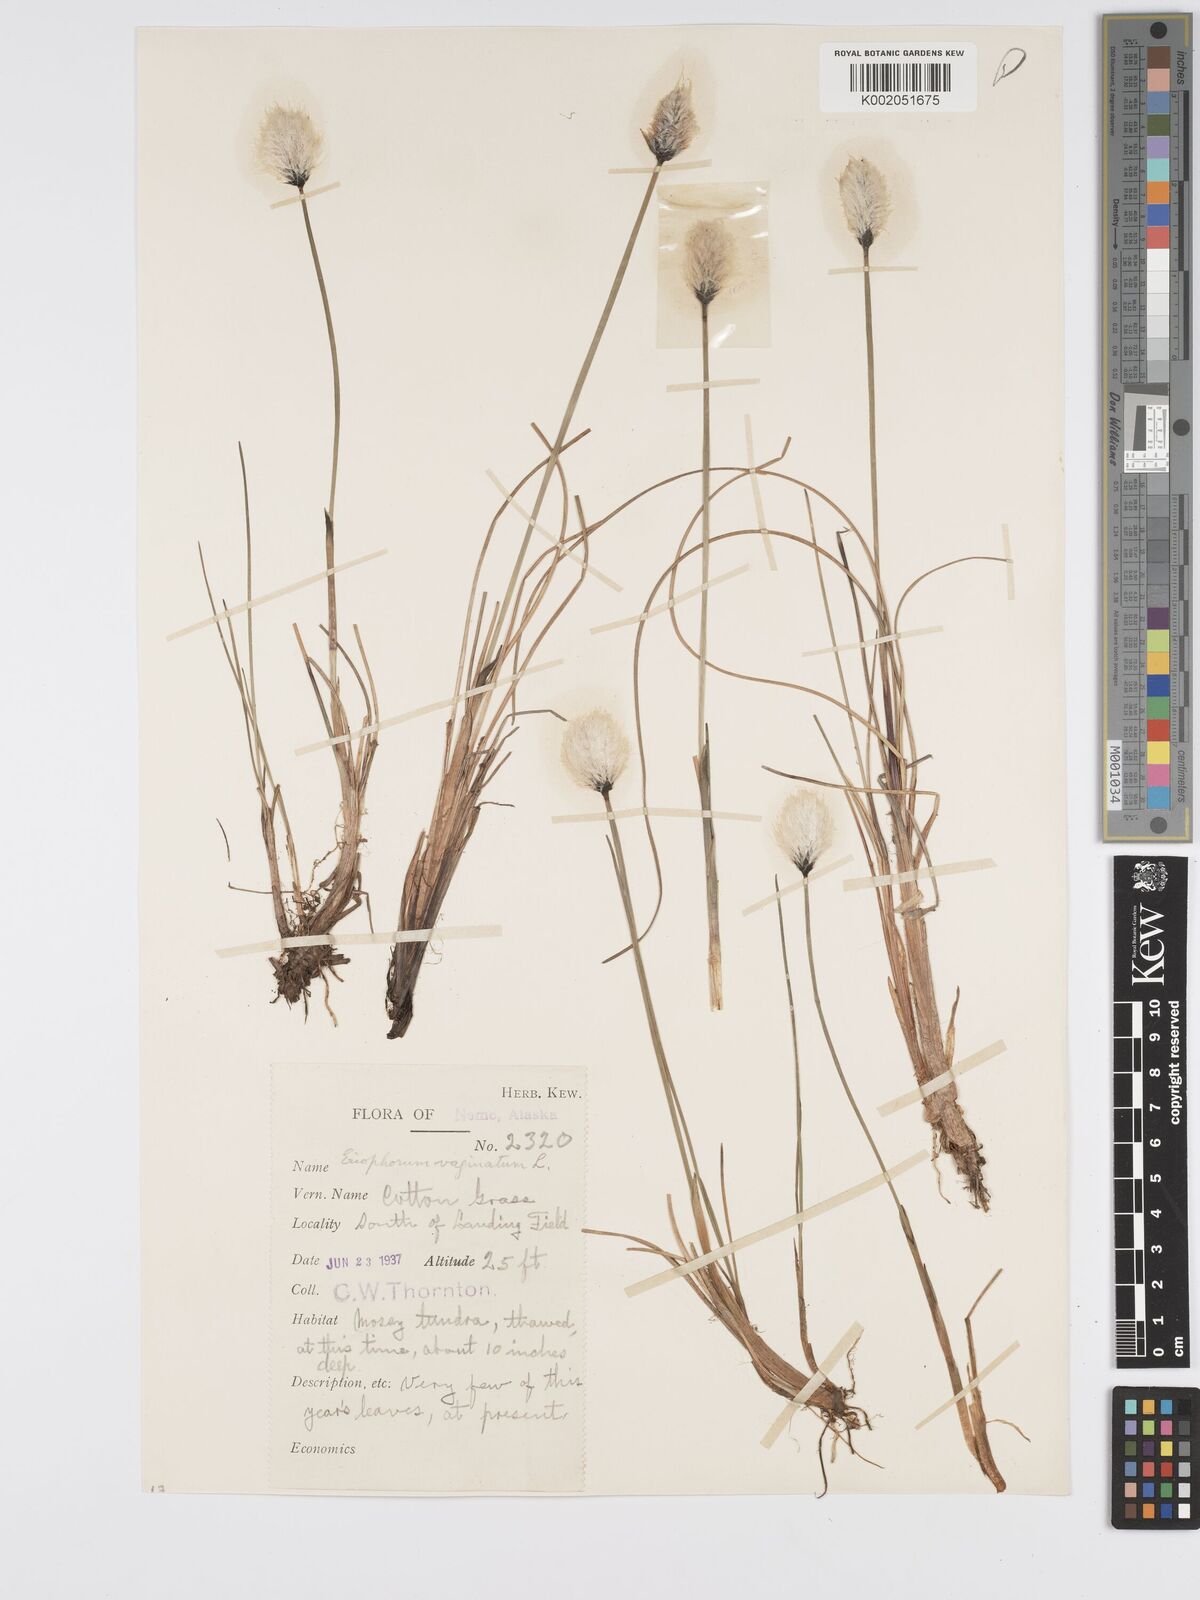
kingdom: Plantae
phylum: Tracheophyta
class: Liliopsida
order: Poales
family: Cyperaceae
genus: Eriophorum
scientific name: Eriophorum vaginatum
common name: Hare's-tail cottongrass
